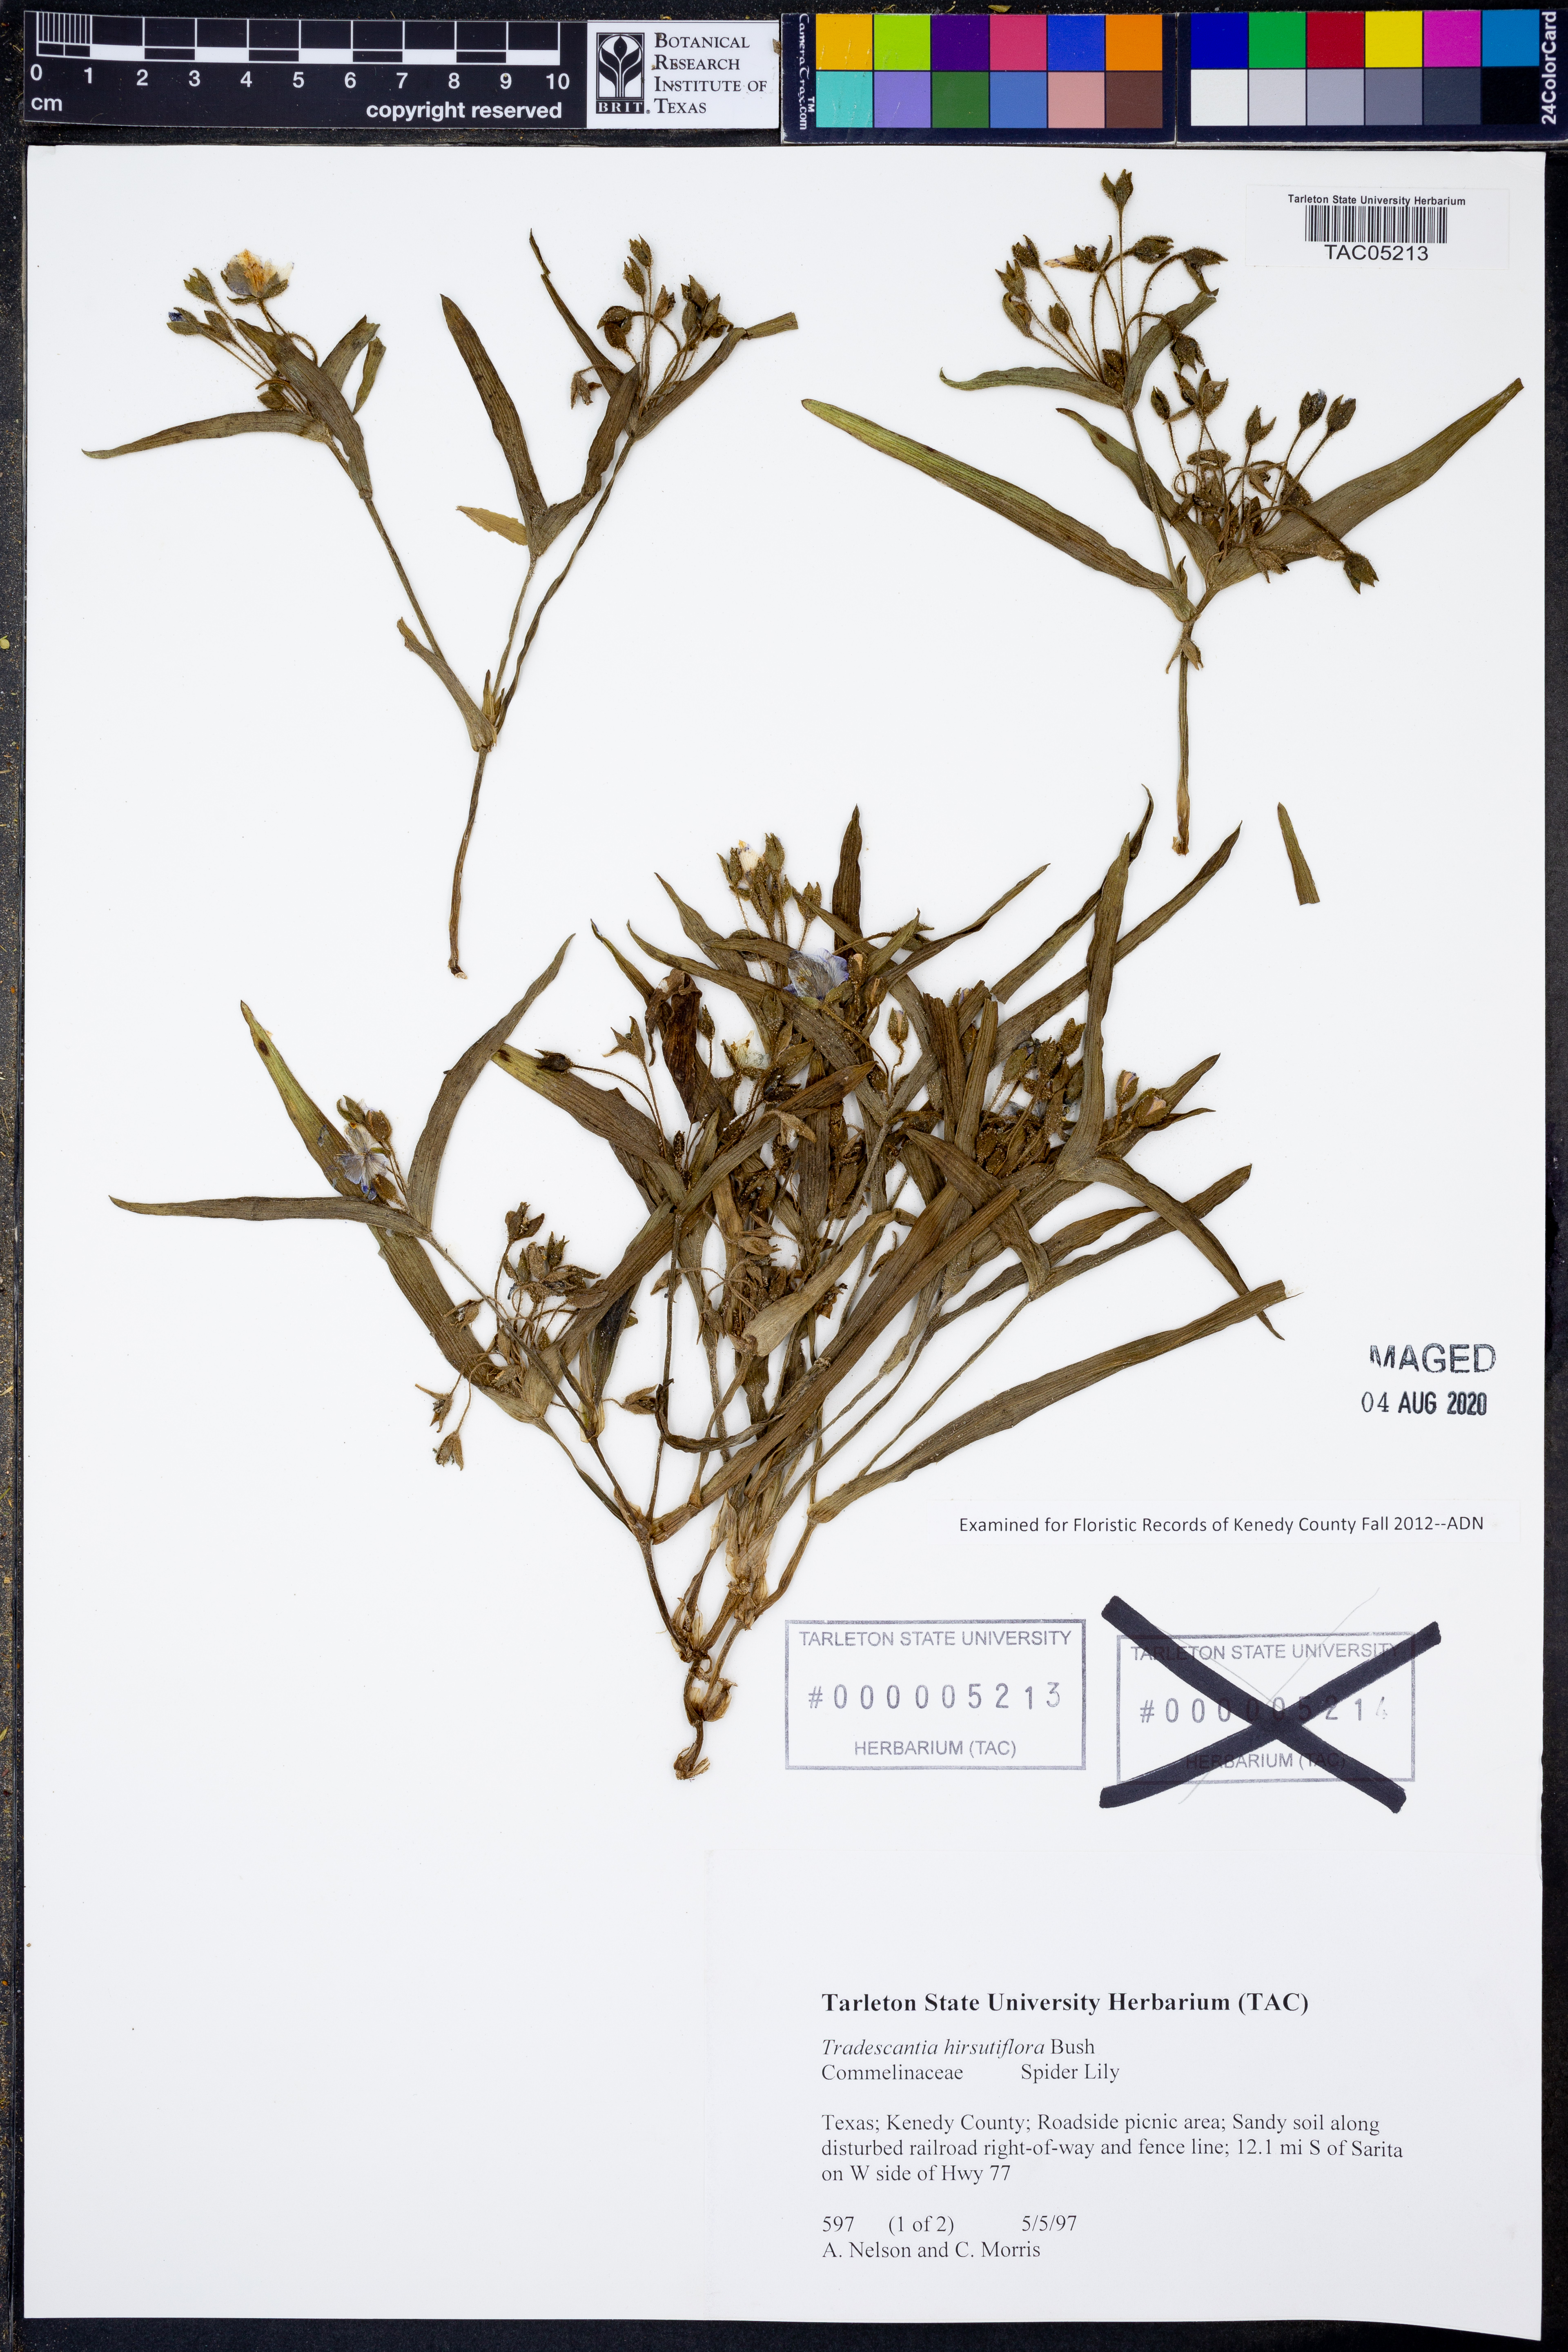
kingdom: Plantae
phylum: Tracheophyta
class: Liliopsida
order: Commelinales
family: Commelinaceae
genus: Tradescantia
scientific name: Tradescantia hirsutiflora
